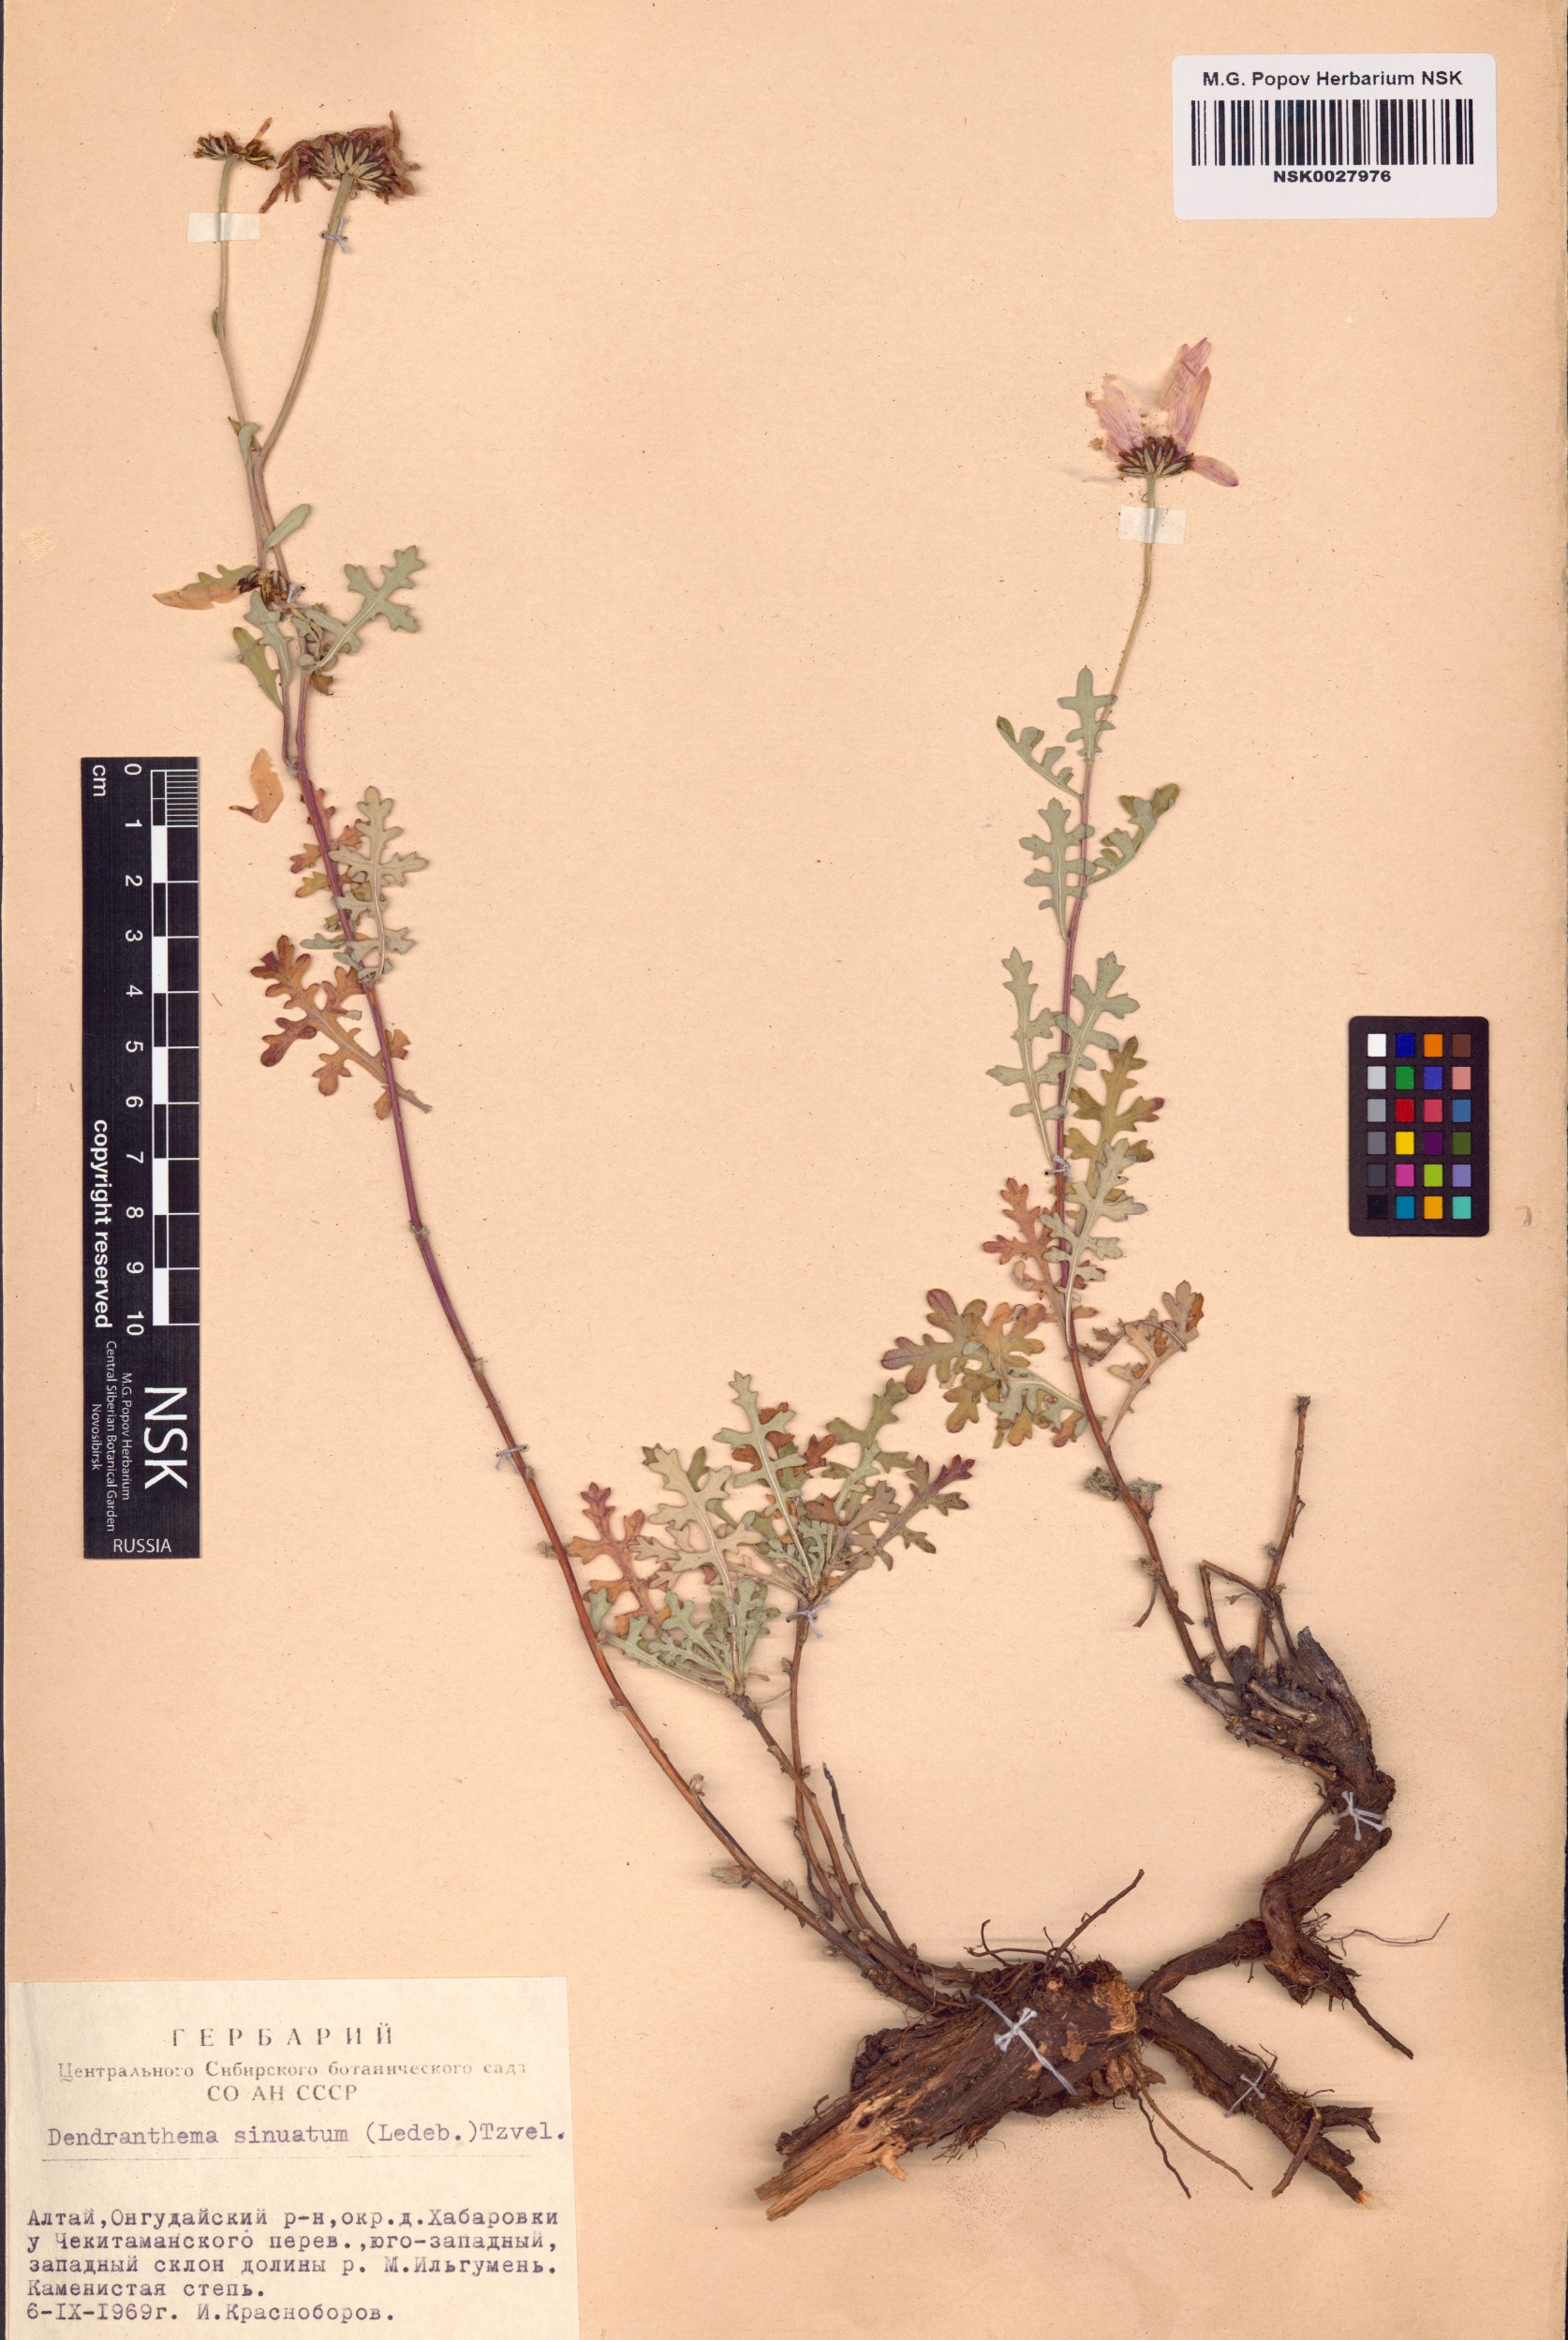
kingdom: Plantae
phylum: Tracheophyta
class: Magnoliopsida
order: Asterales
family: Asteraceae
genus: Chrysanthemum
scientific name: Chrysanthemum sinuatum
